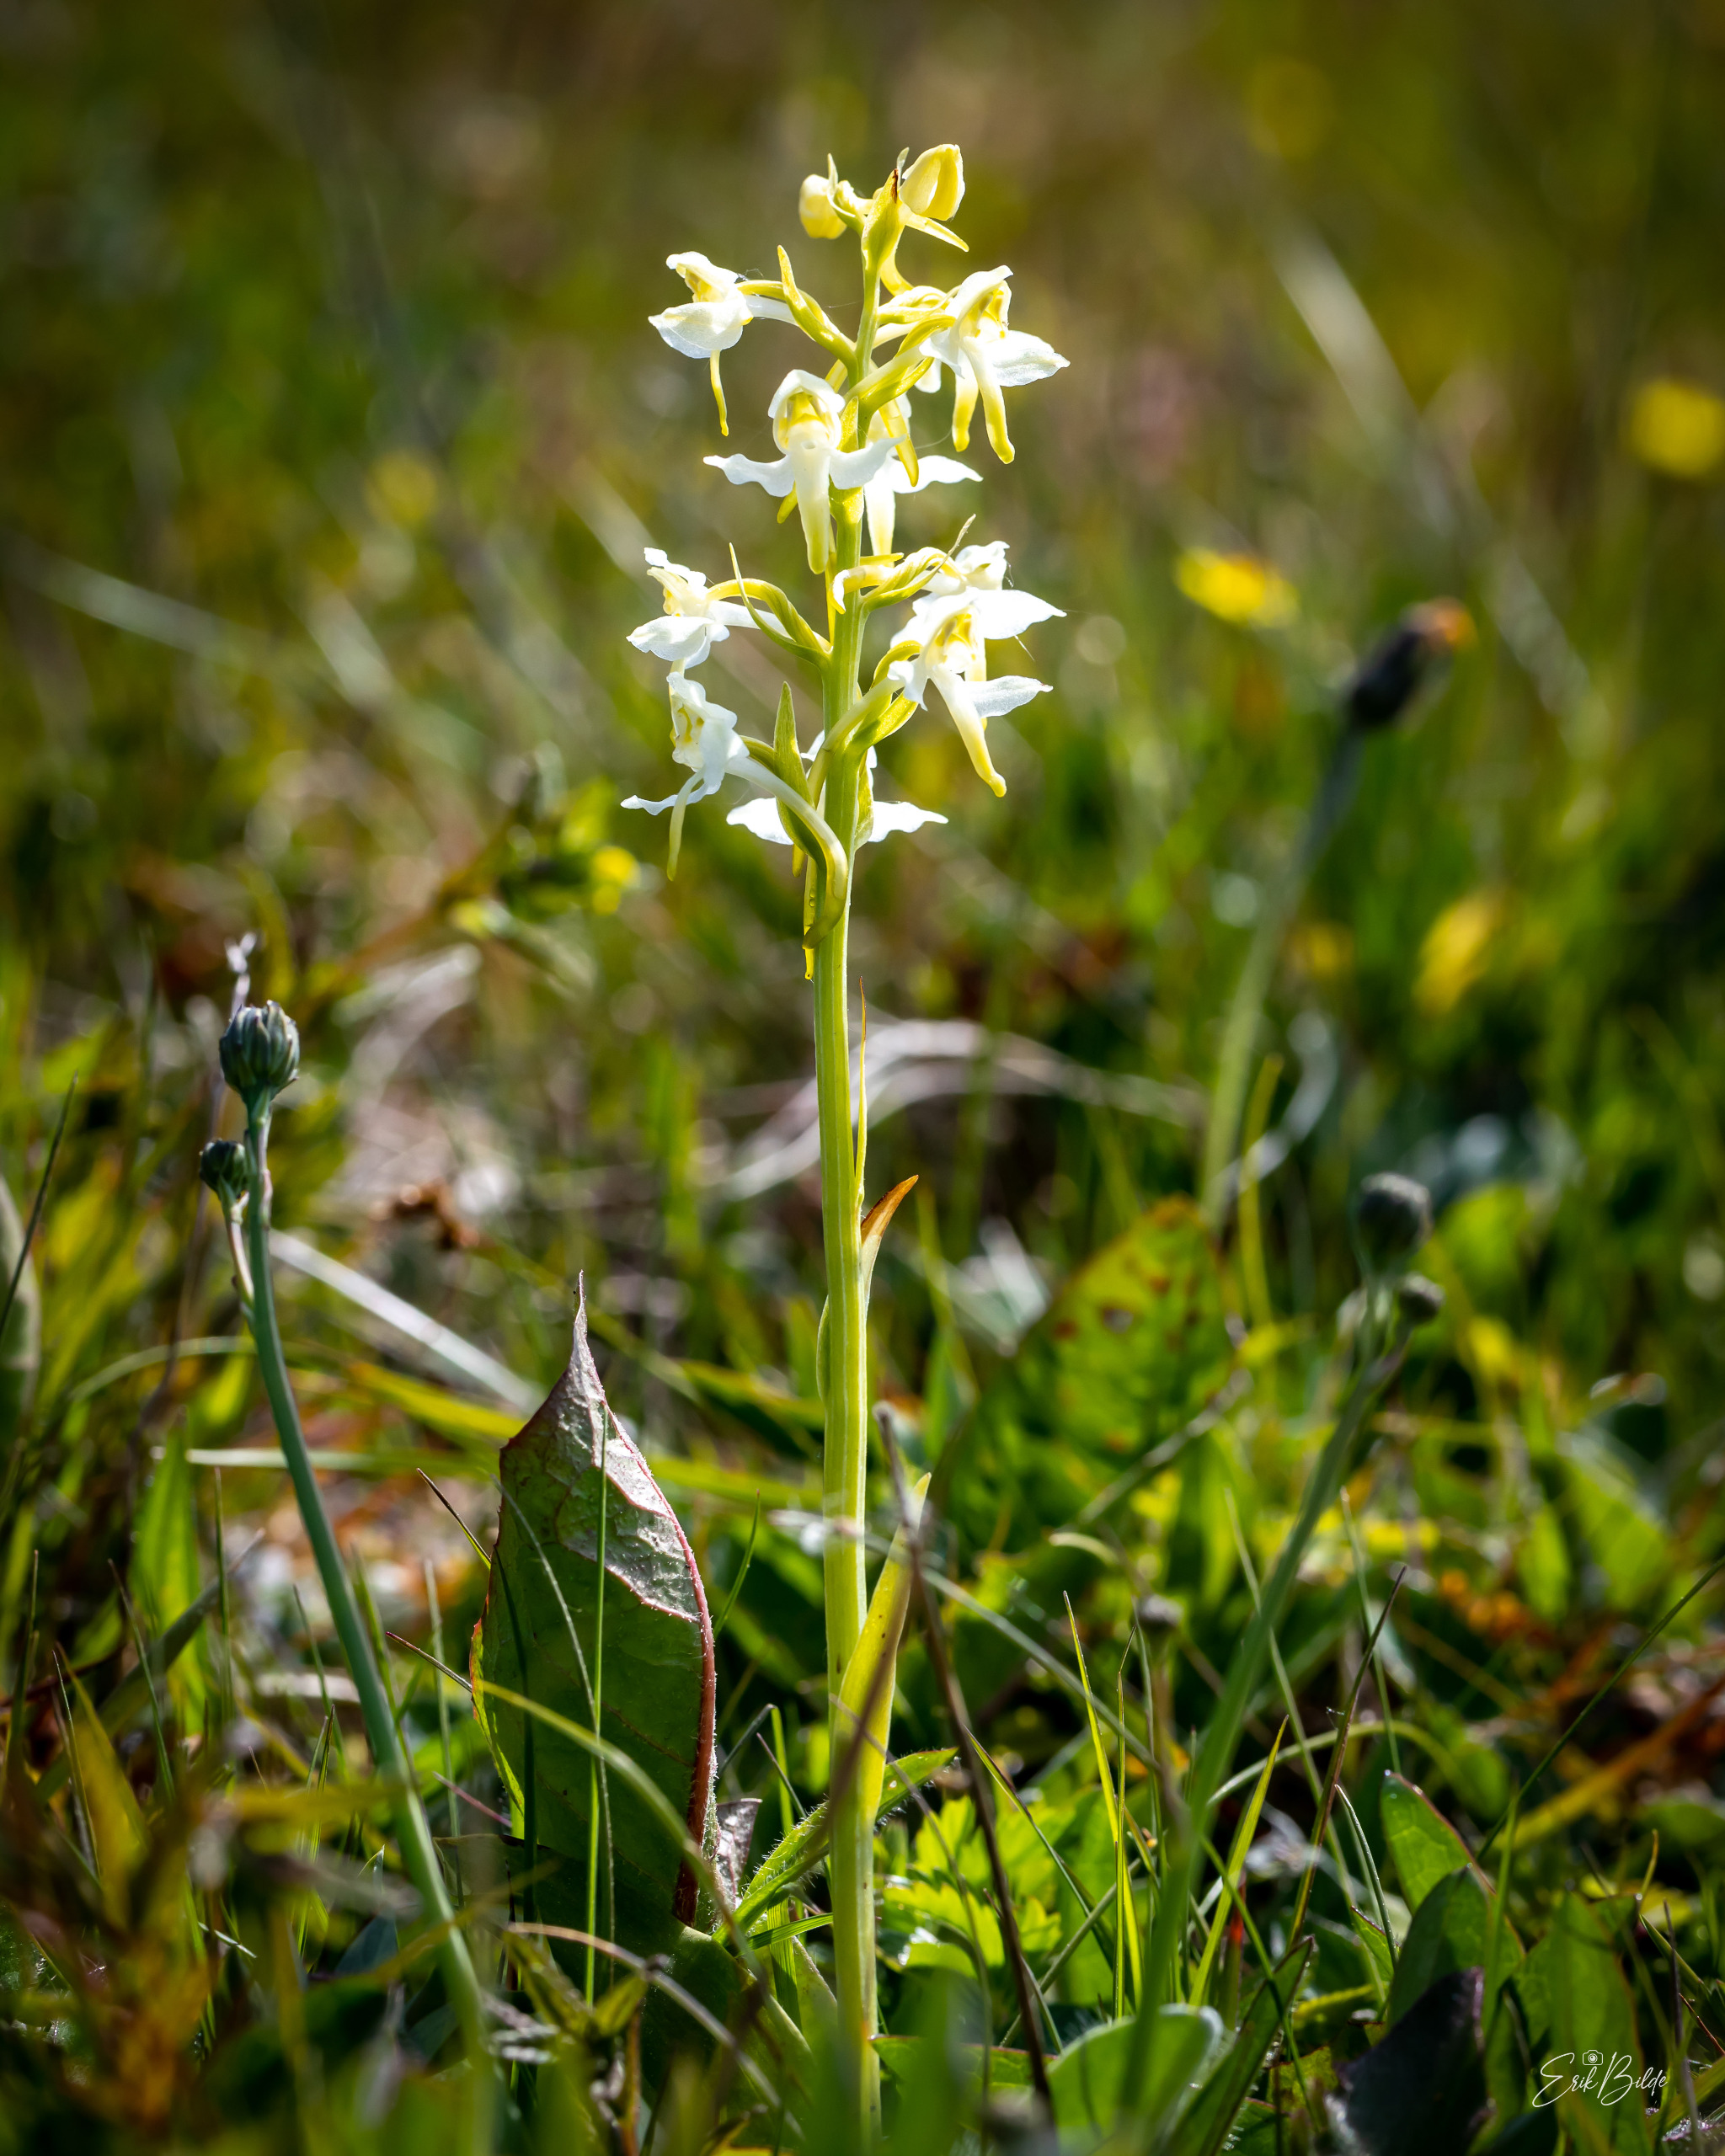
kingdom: Plantae
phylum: Tracheophyta
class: Liliopsida
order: Asparagales
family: Orchidaceae
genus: Platanthera
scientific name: Platanthera chlorantha
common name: Skov-gøgelilje
